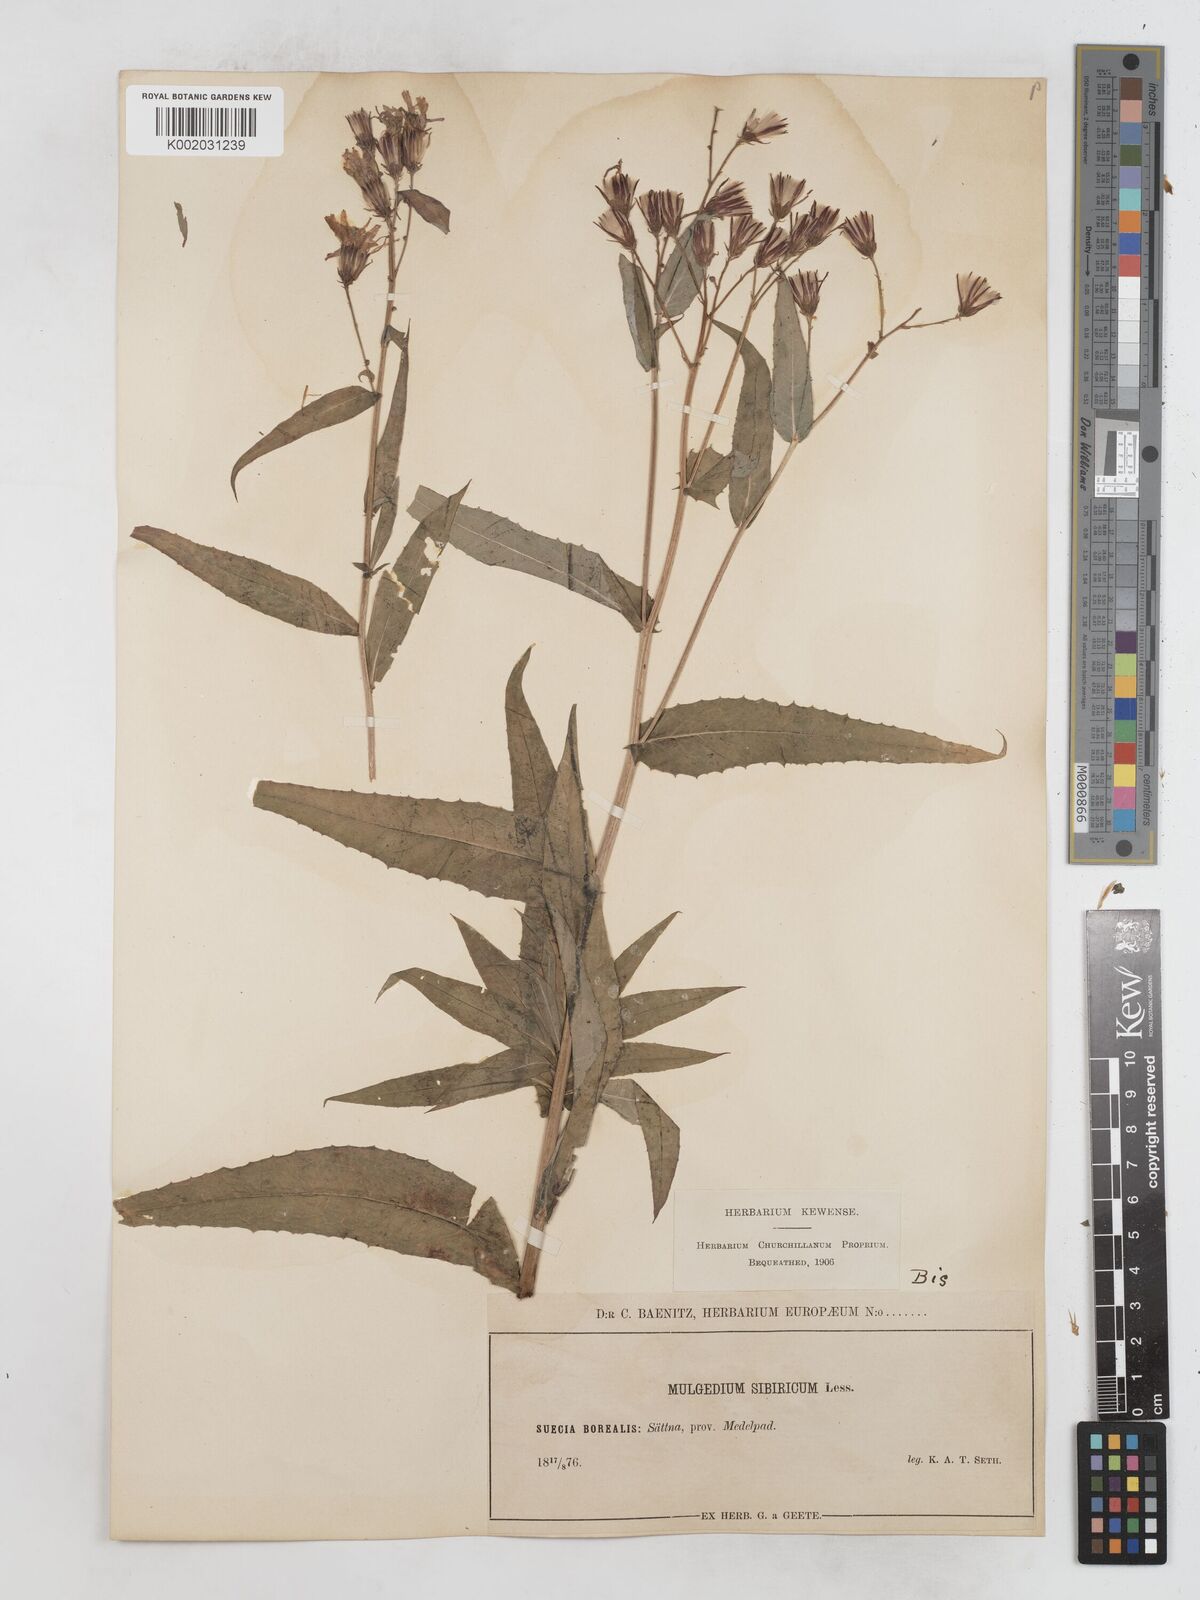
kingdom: Plantae
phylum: Tracheophyta
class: Magnoliopsida
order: Asterales
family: Asteraceae
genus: Lactuca
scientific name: Lactuca sibirica
